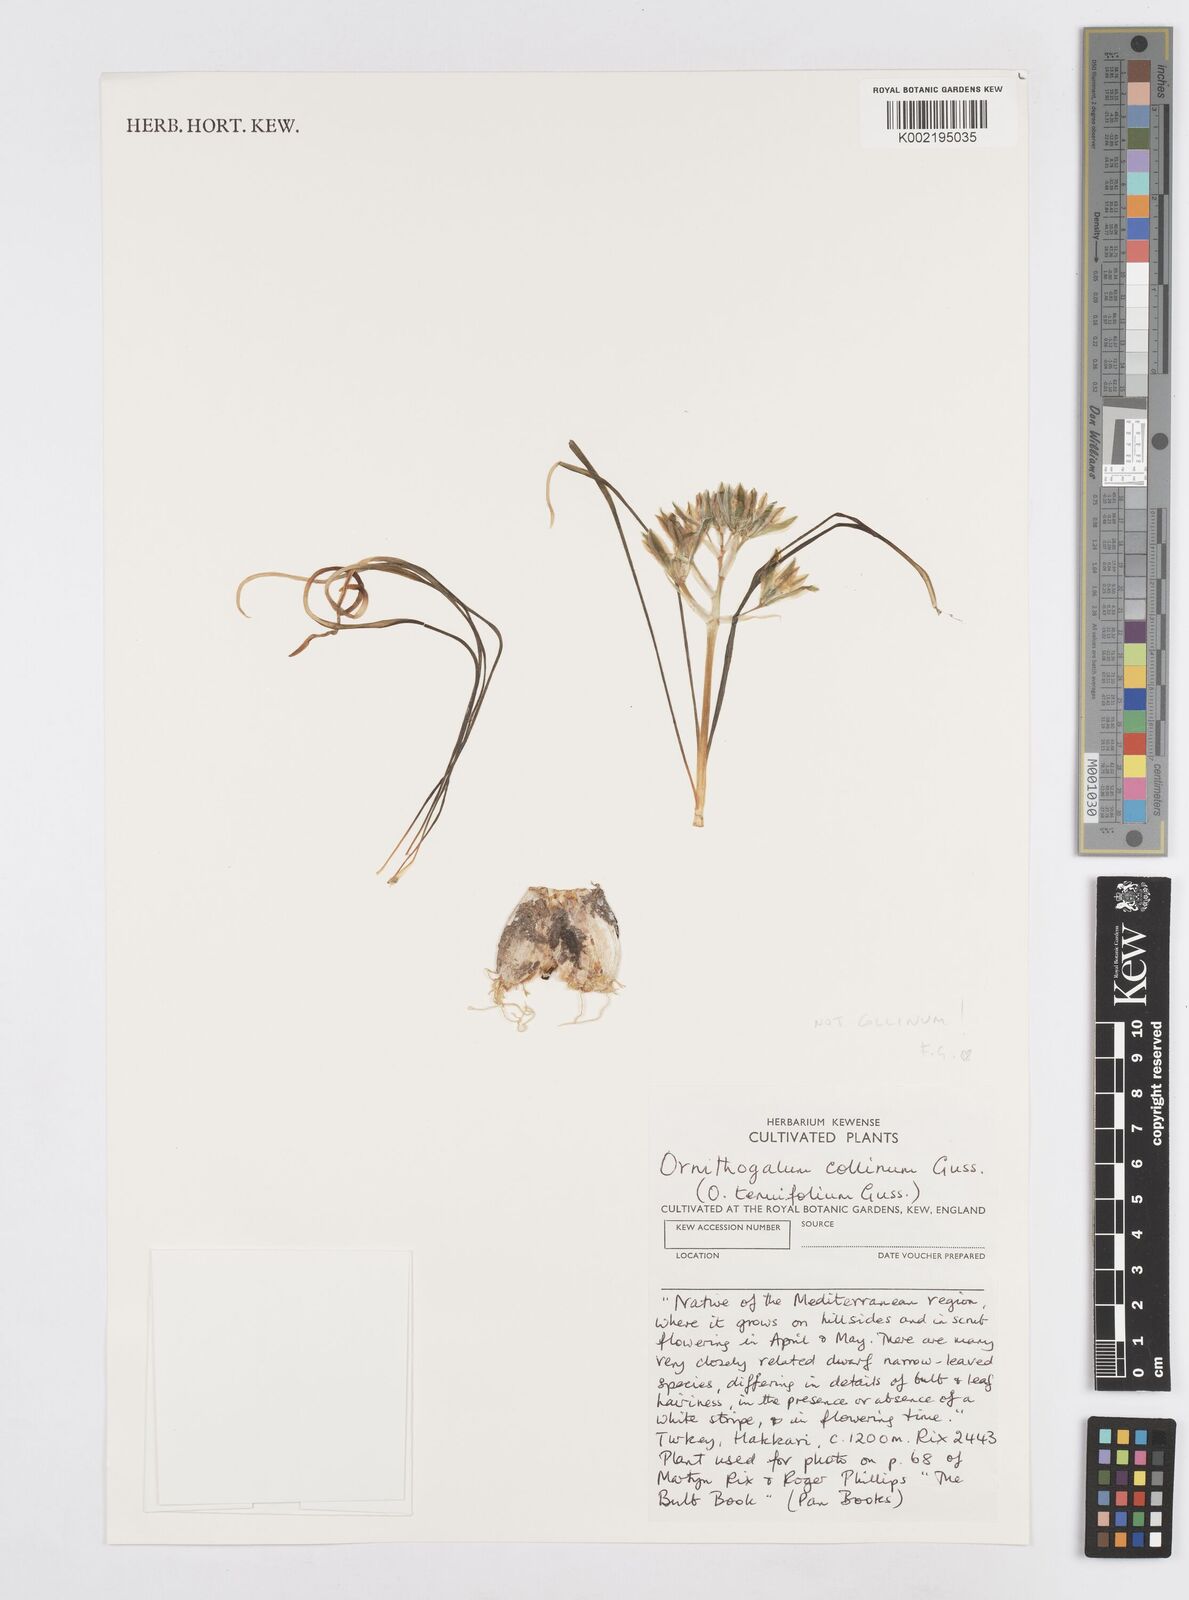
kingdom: Plantae
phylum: Tracheophyta
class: Liliopsida
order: Asparagales
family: Asparagaceae
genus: Ornithogalum
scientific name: Ornithogalum collinum
